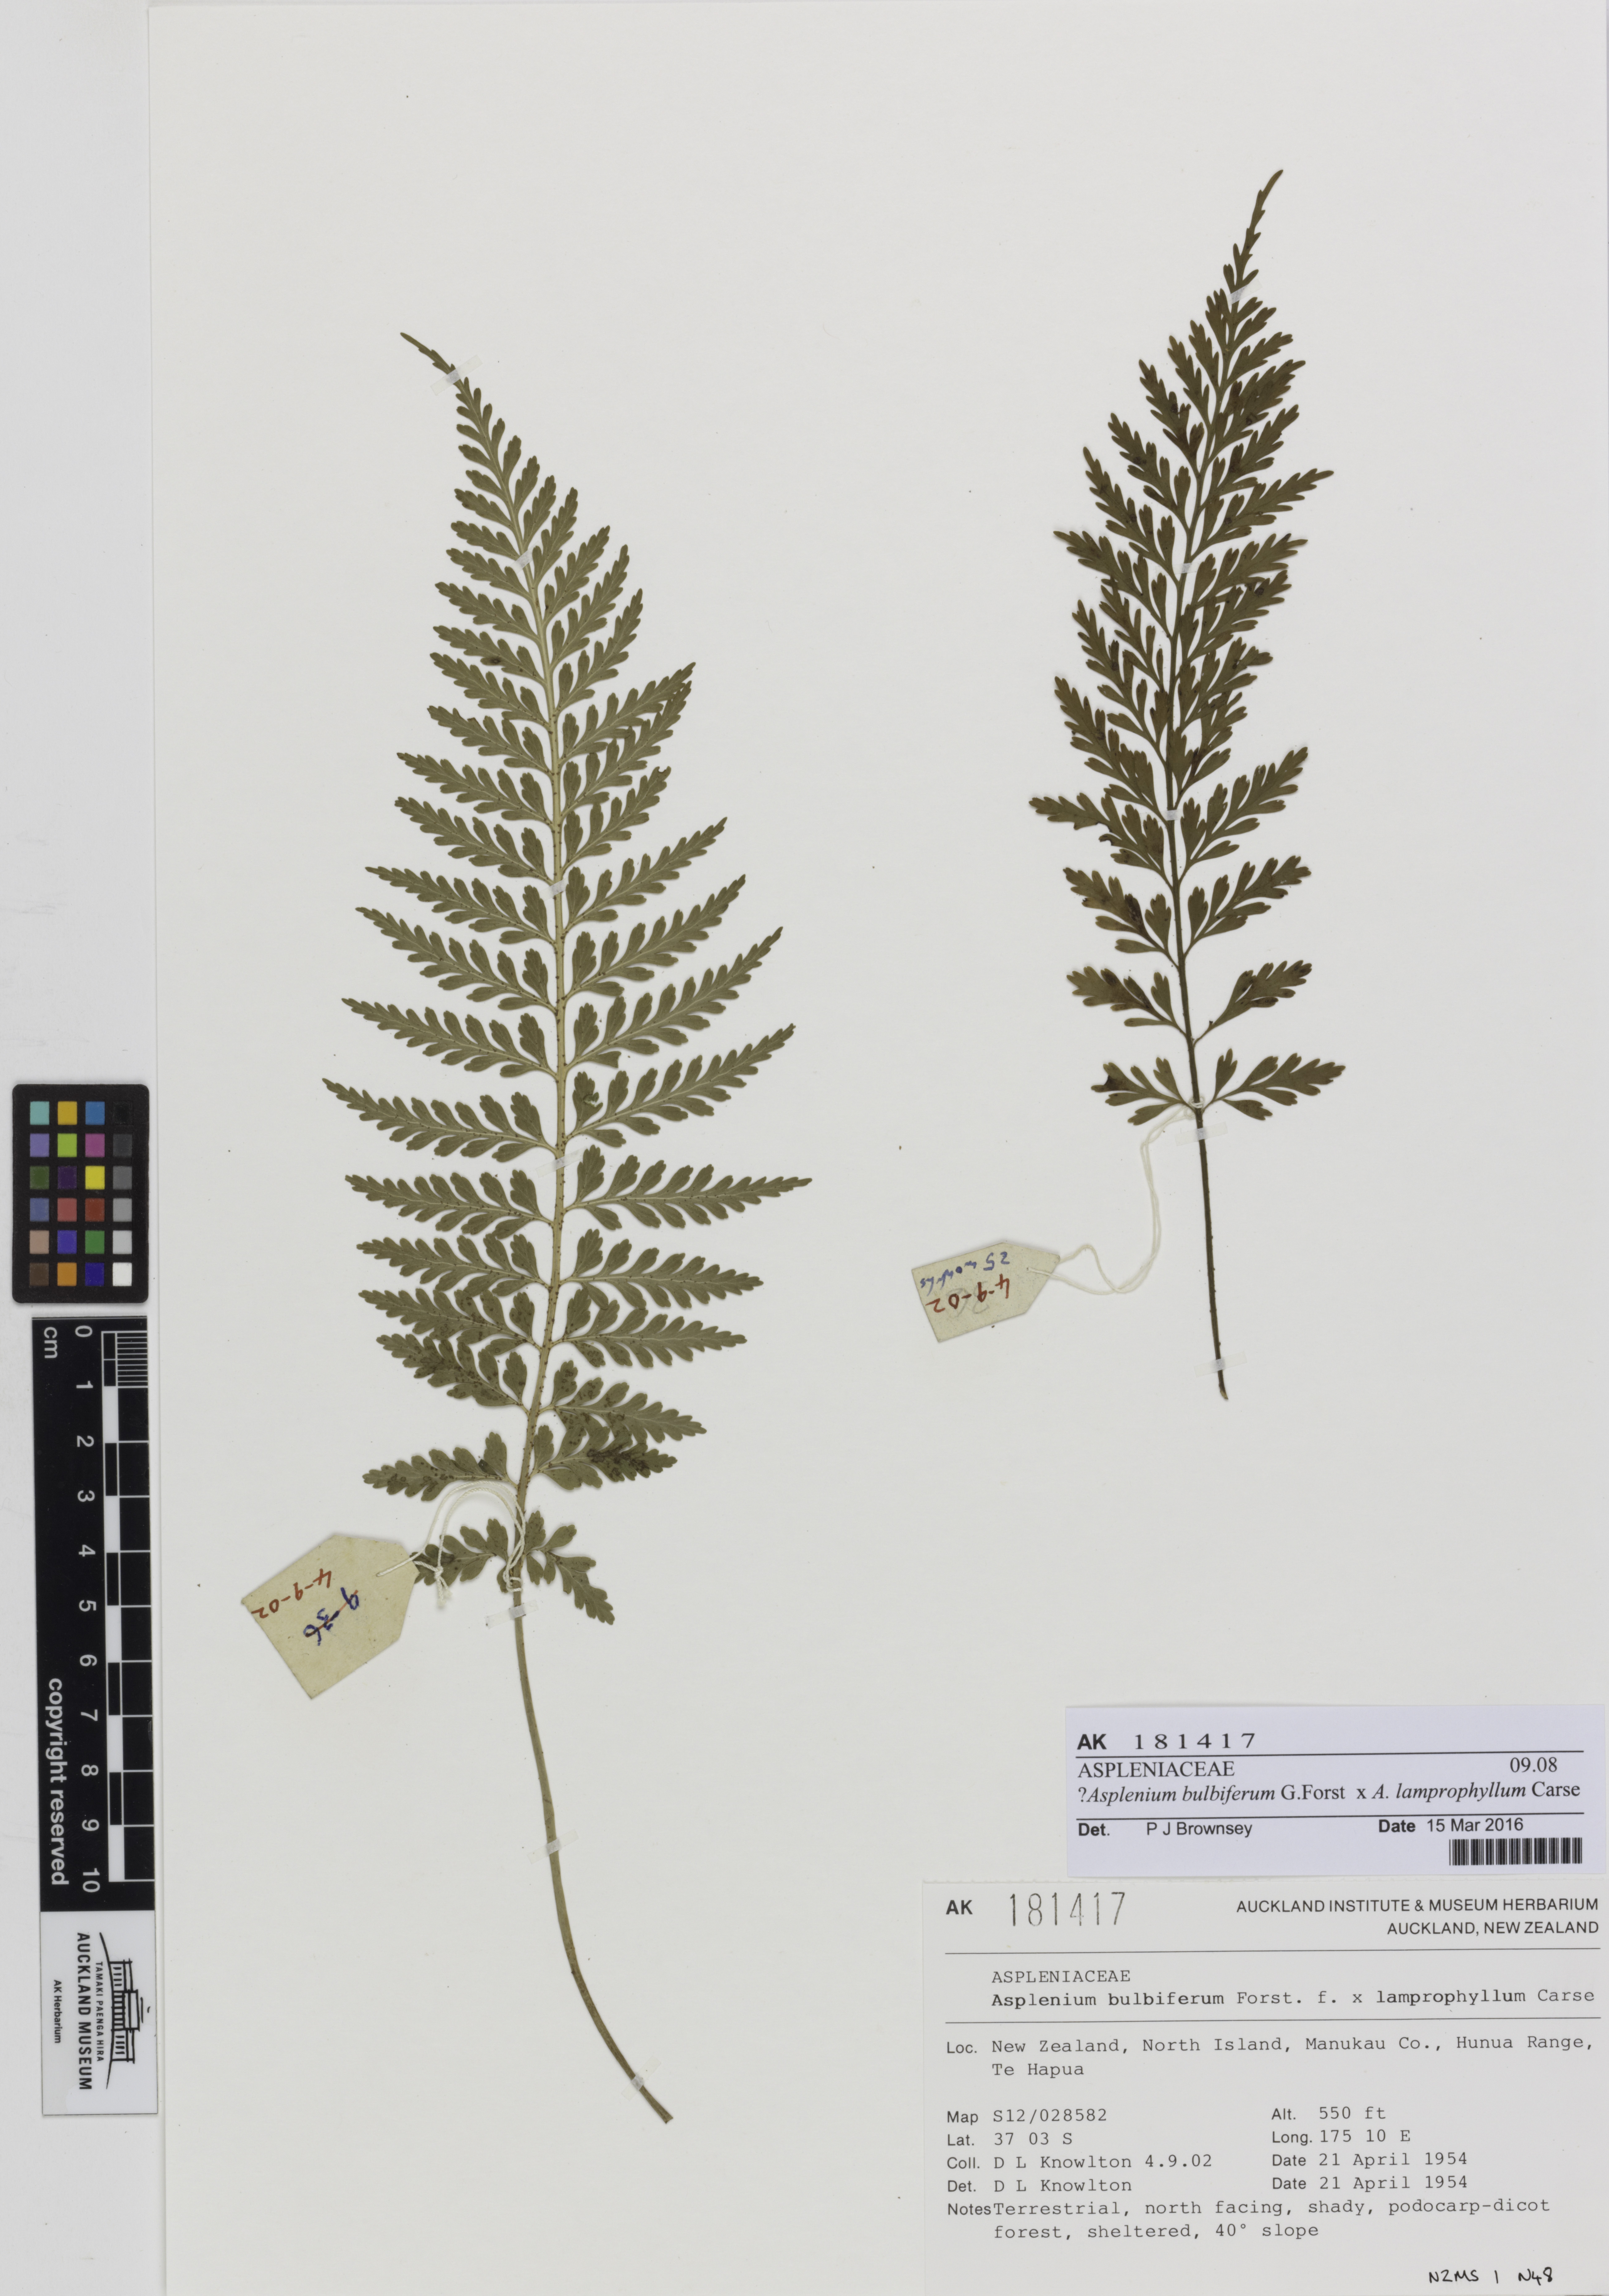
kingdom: Plantae
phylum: Tracheophyta
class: Polypodiopsida
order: Polypodiales
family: Aspleniaceae
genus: Asplenium
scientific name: Asplenium
